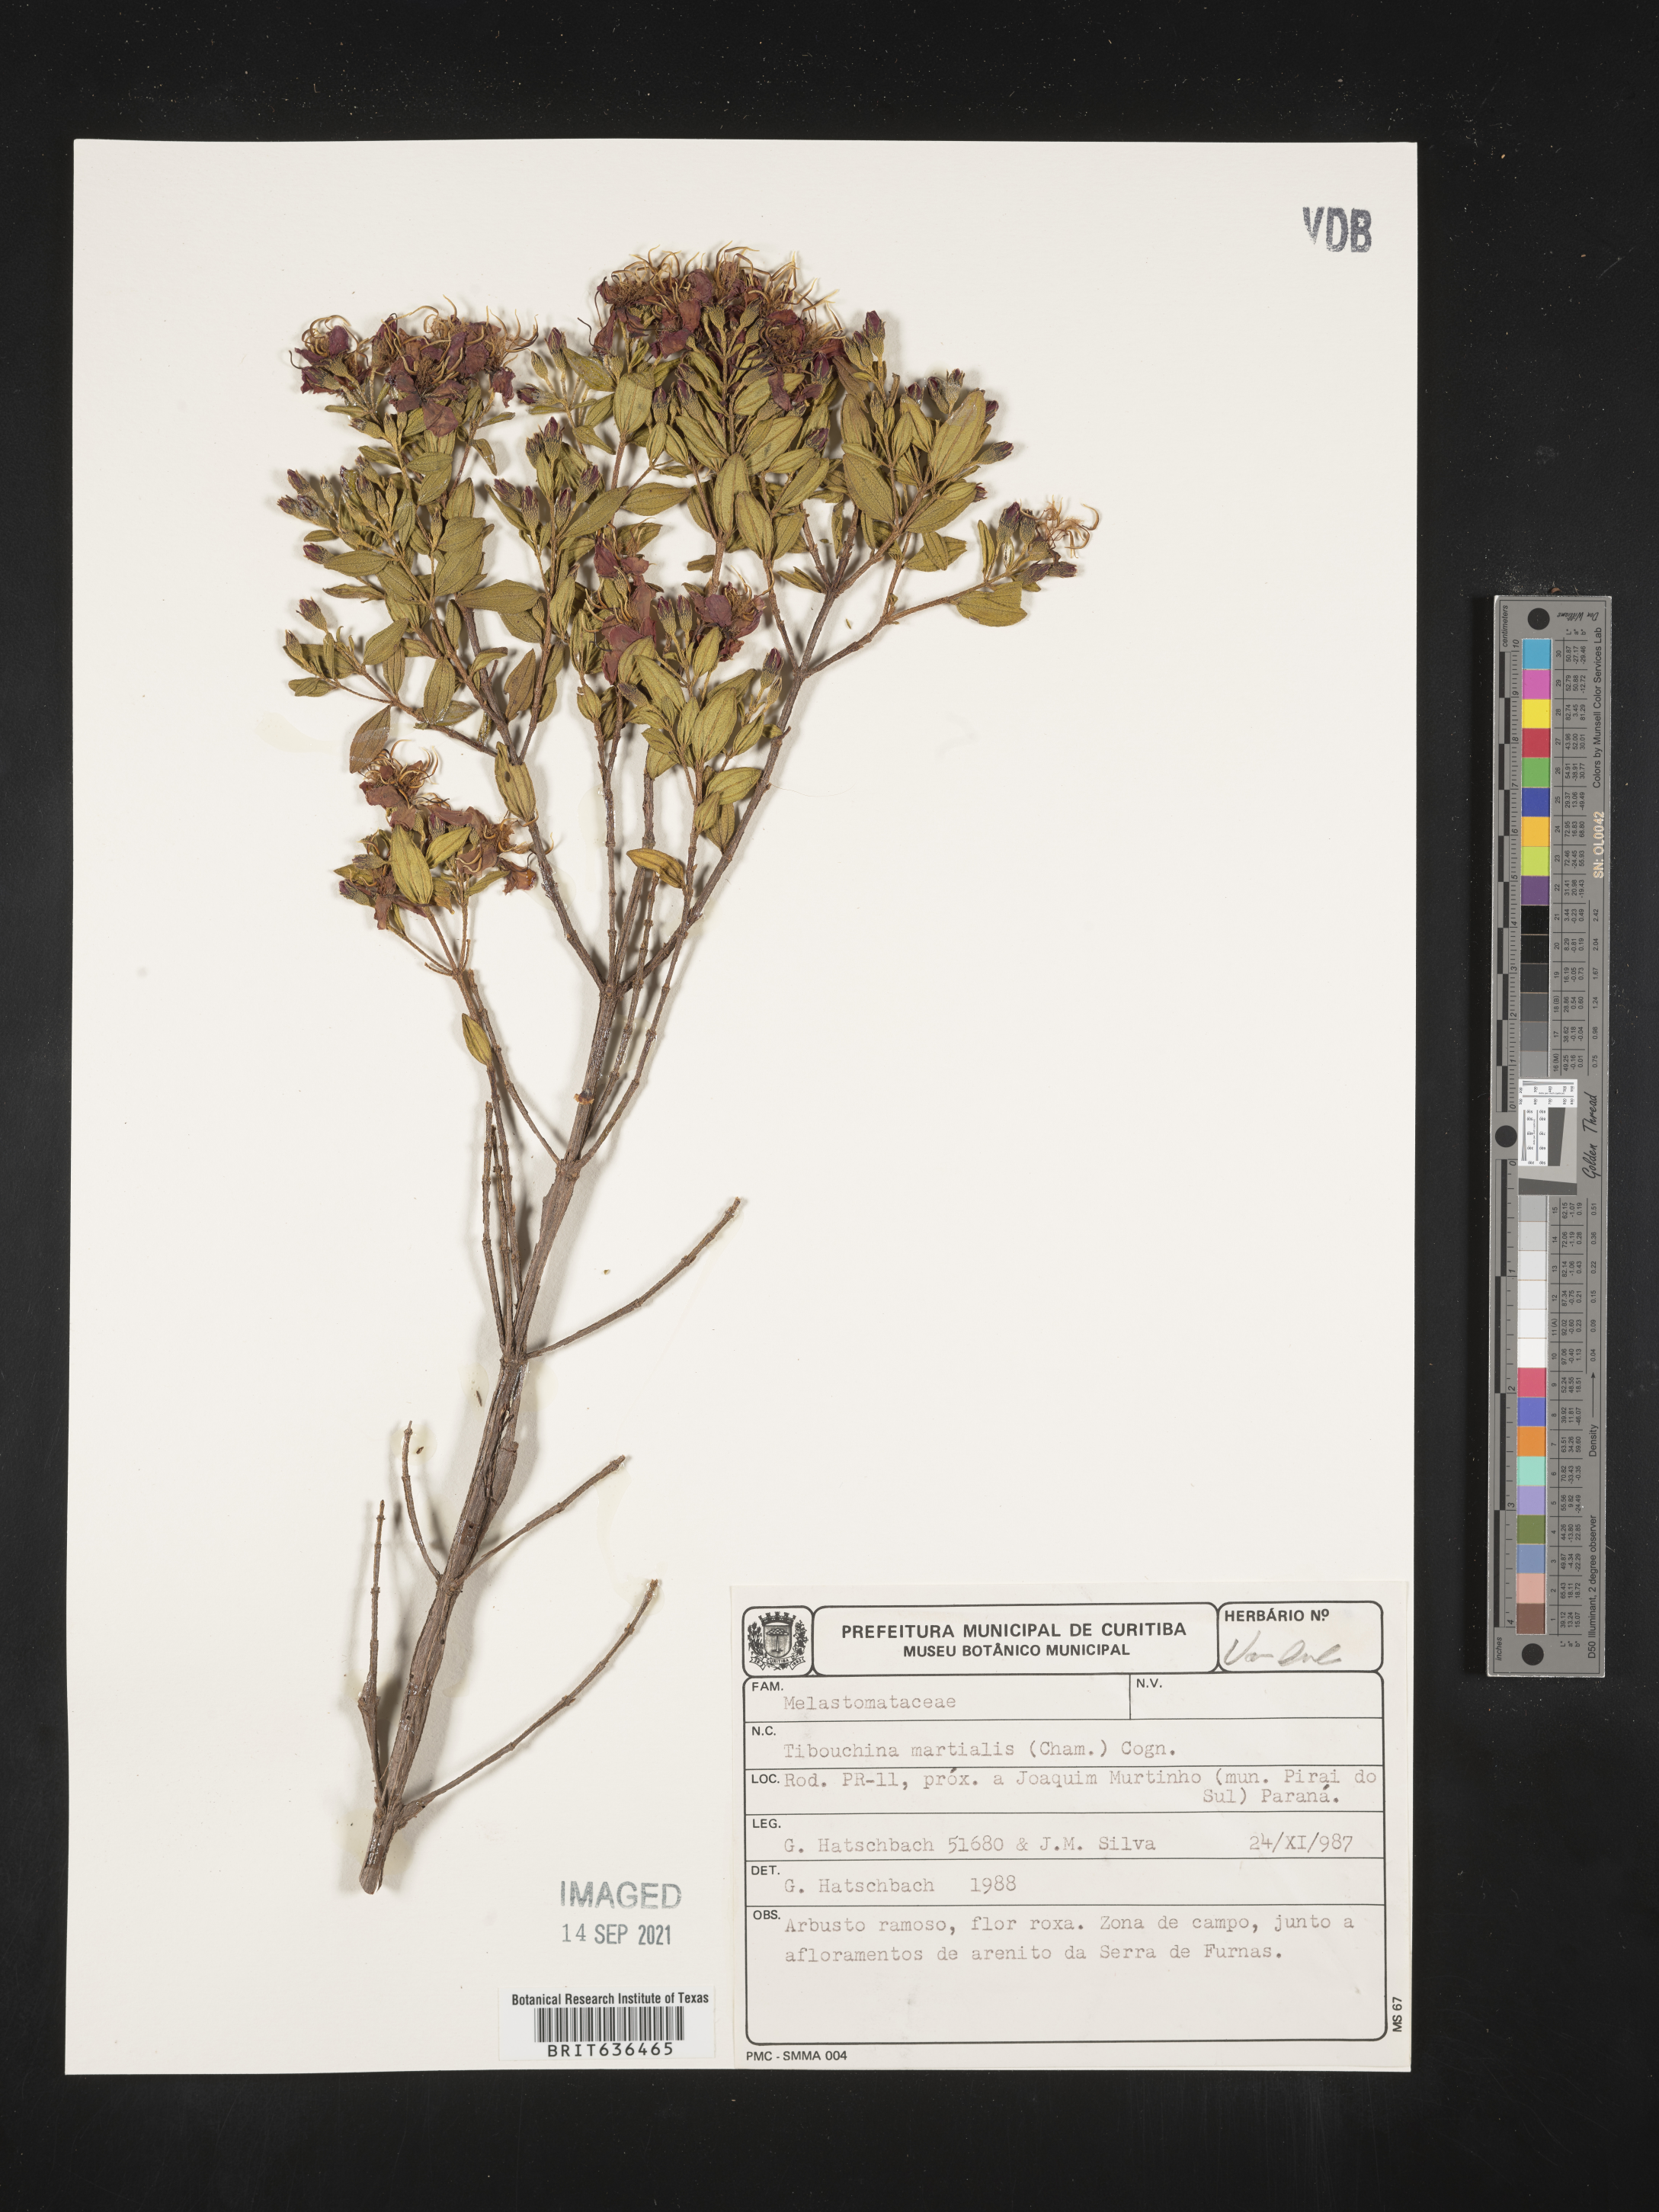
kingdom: Plantae
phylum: Tracheophyta
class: Magnoliopsida
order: Myrtales
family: Melastomataceae
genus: Tibouchina
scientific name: Tibouchina
